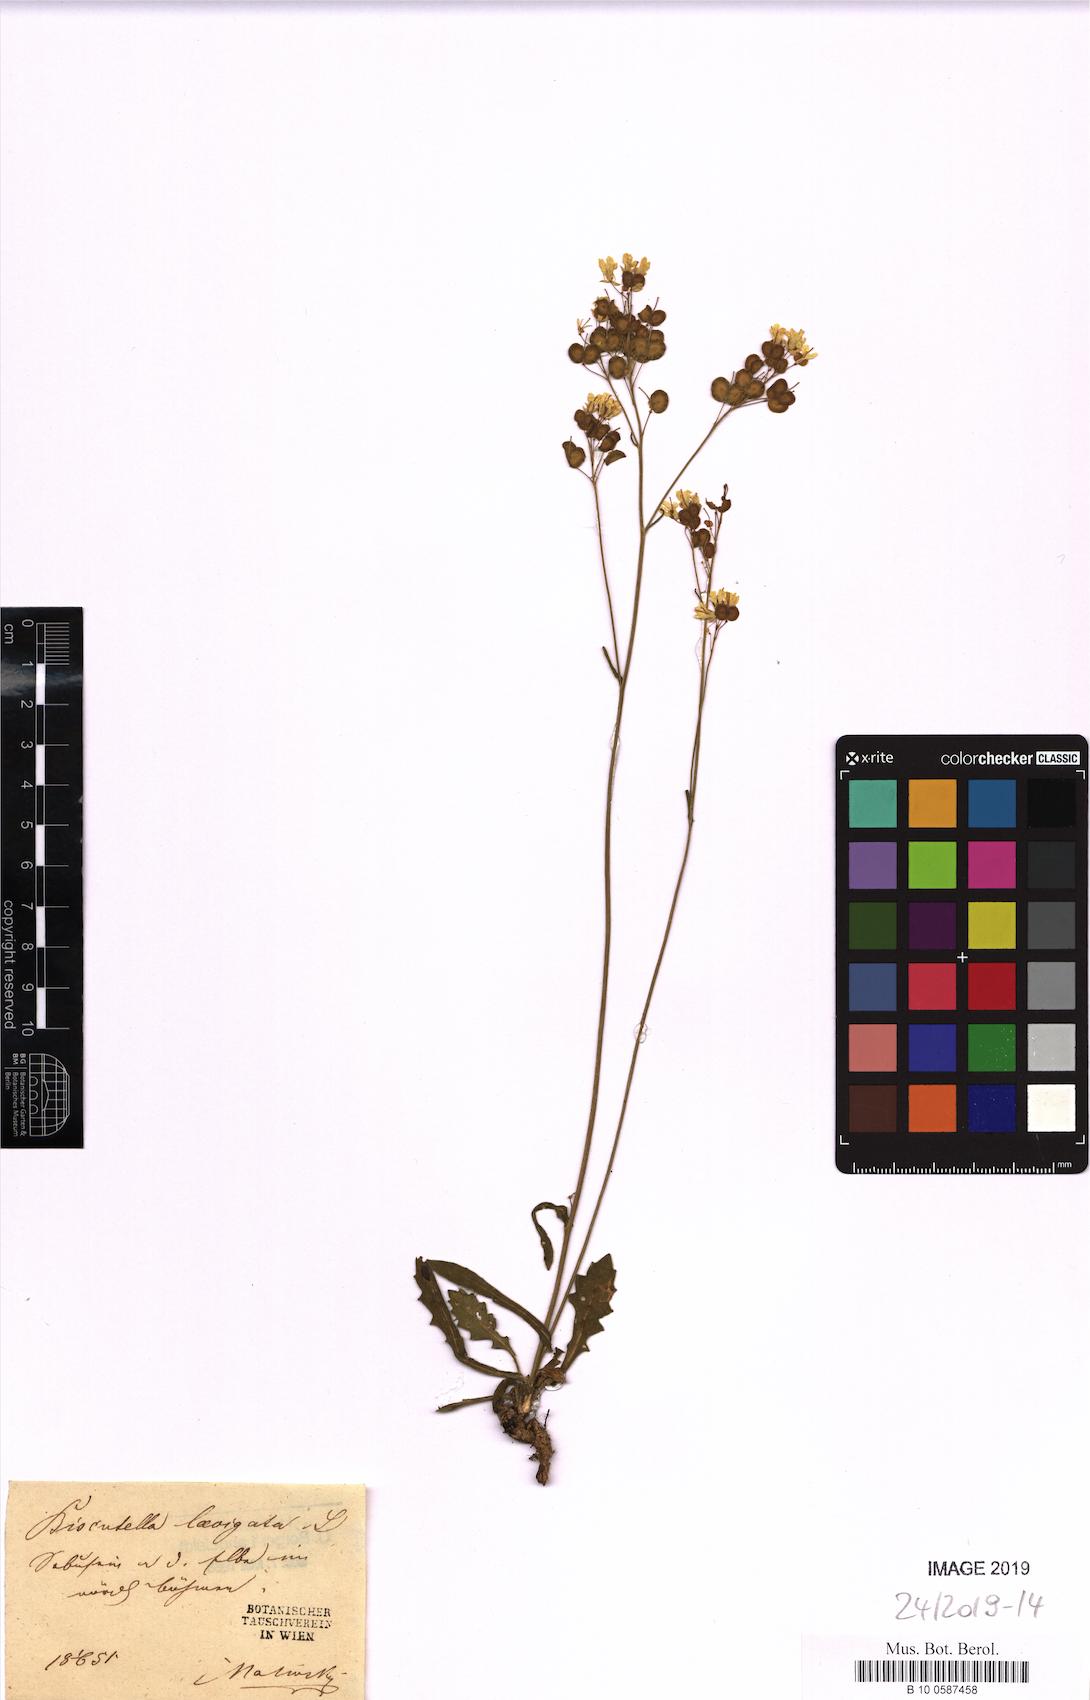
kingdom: Plantae
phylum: Tracheophyta
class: Magnoliopsida
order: Brassicales
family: Brassicaceae
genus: Biscutella
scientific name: Biscutella laevigata
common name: Buckler mustard
